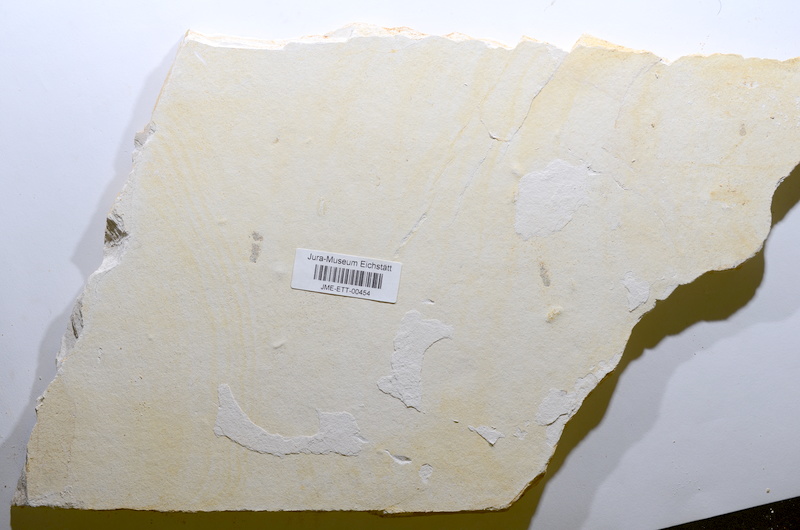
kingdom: Animalia
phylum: Chordata
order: Salmoniformes
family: Orthogonikleithridae
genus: Orthogonikleithrus
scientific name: Orthogonikleithrus hoelli
